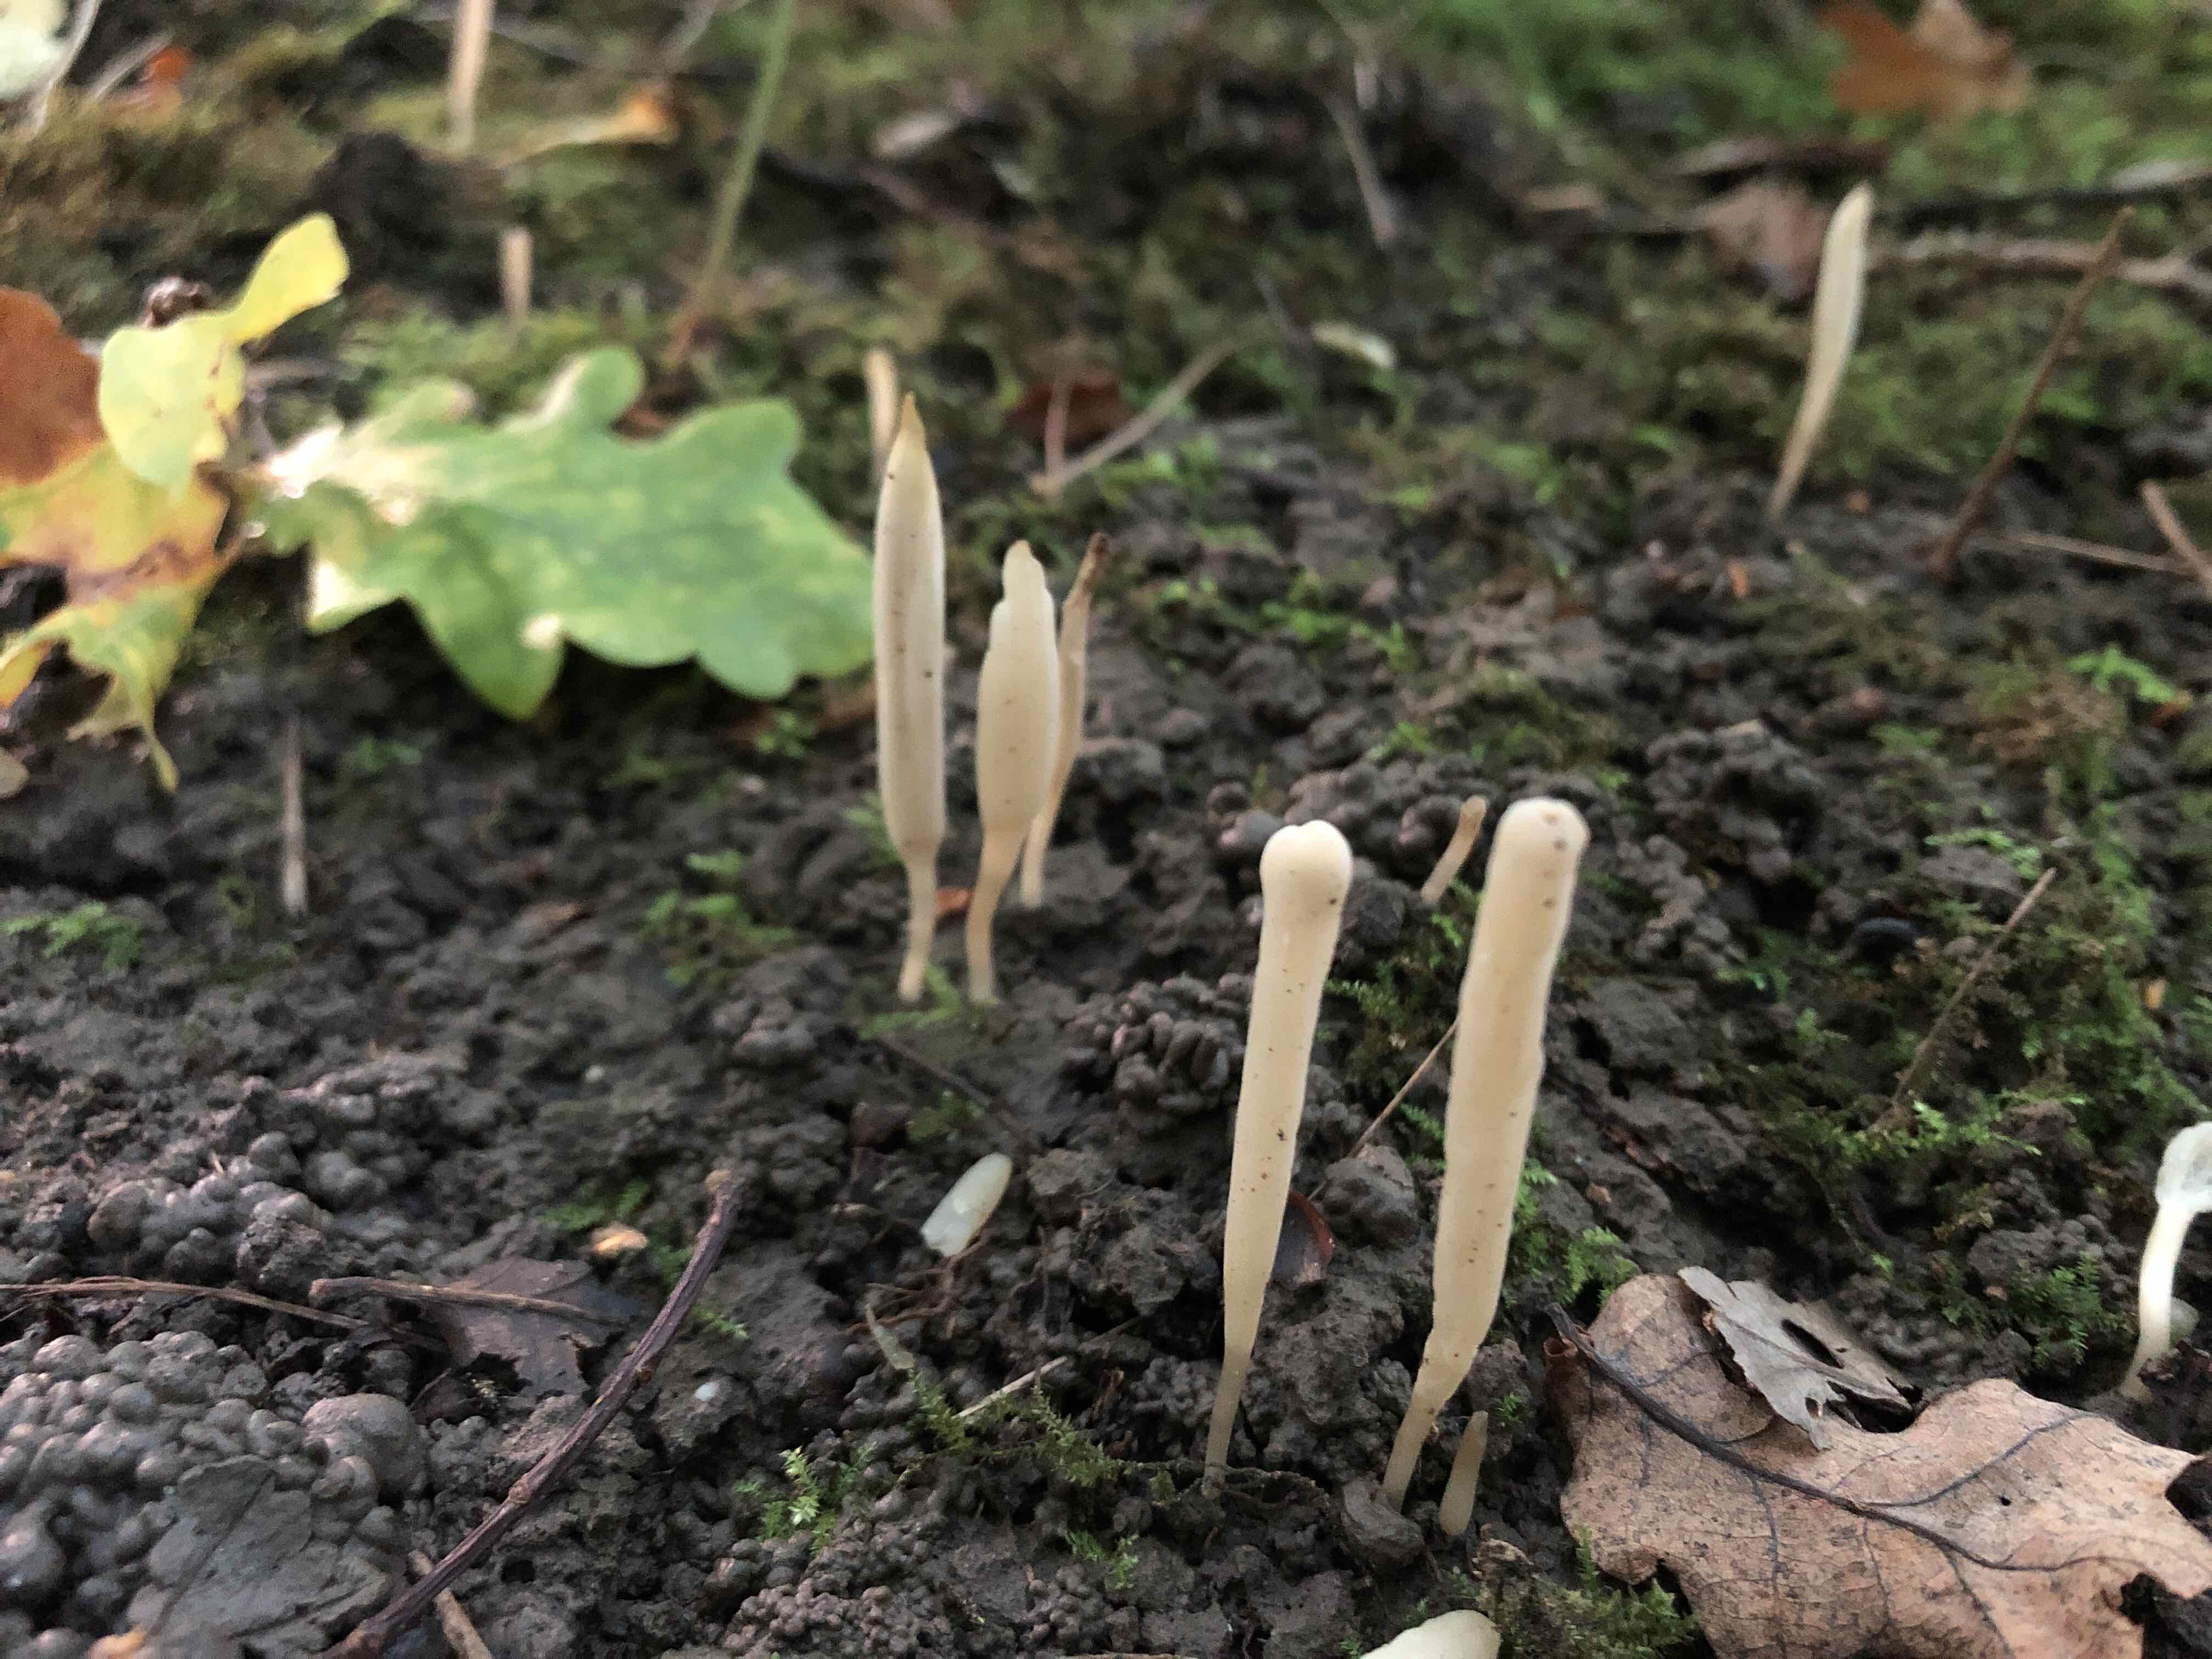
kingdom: Fungi
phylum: Basidiomycota
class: Agaricomycetes
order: Agaricales
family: Clavariaceae
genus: Clavaria
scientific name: Clavaria falcata
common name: hvid køllesvamp
